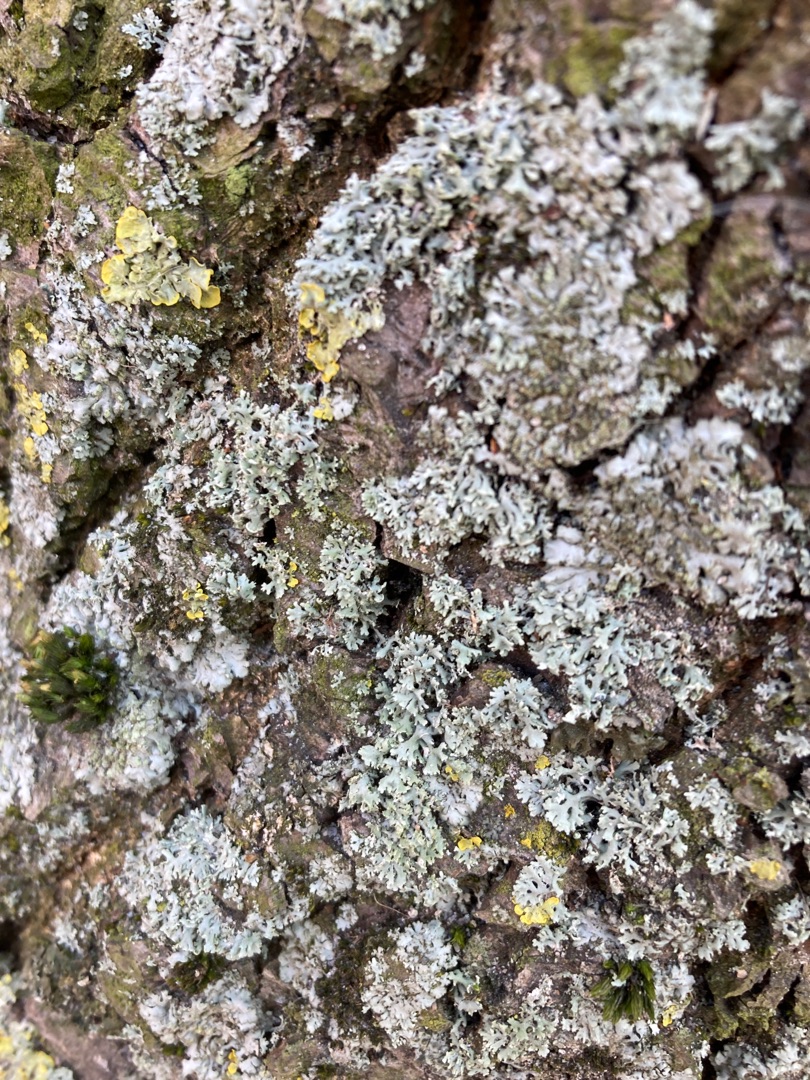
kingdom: Fungi
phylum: Ascomycota
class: Lecanoromycetes
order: Caliciales
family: Physciaceae
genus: Physcia
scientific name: Physcia tenella
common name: Spæd rosetlav
